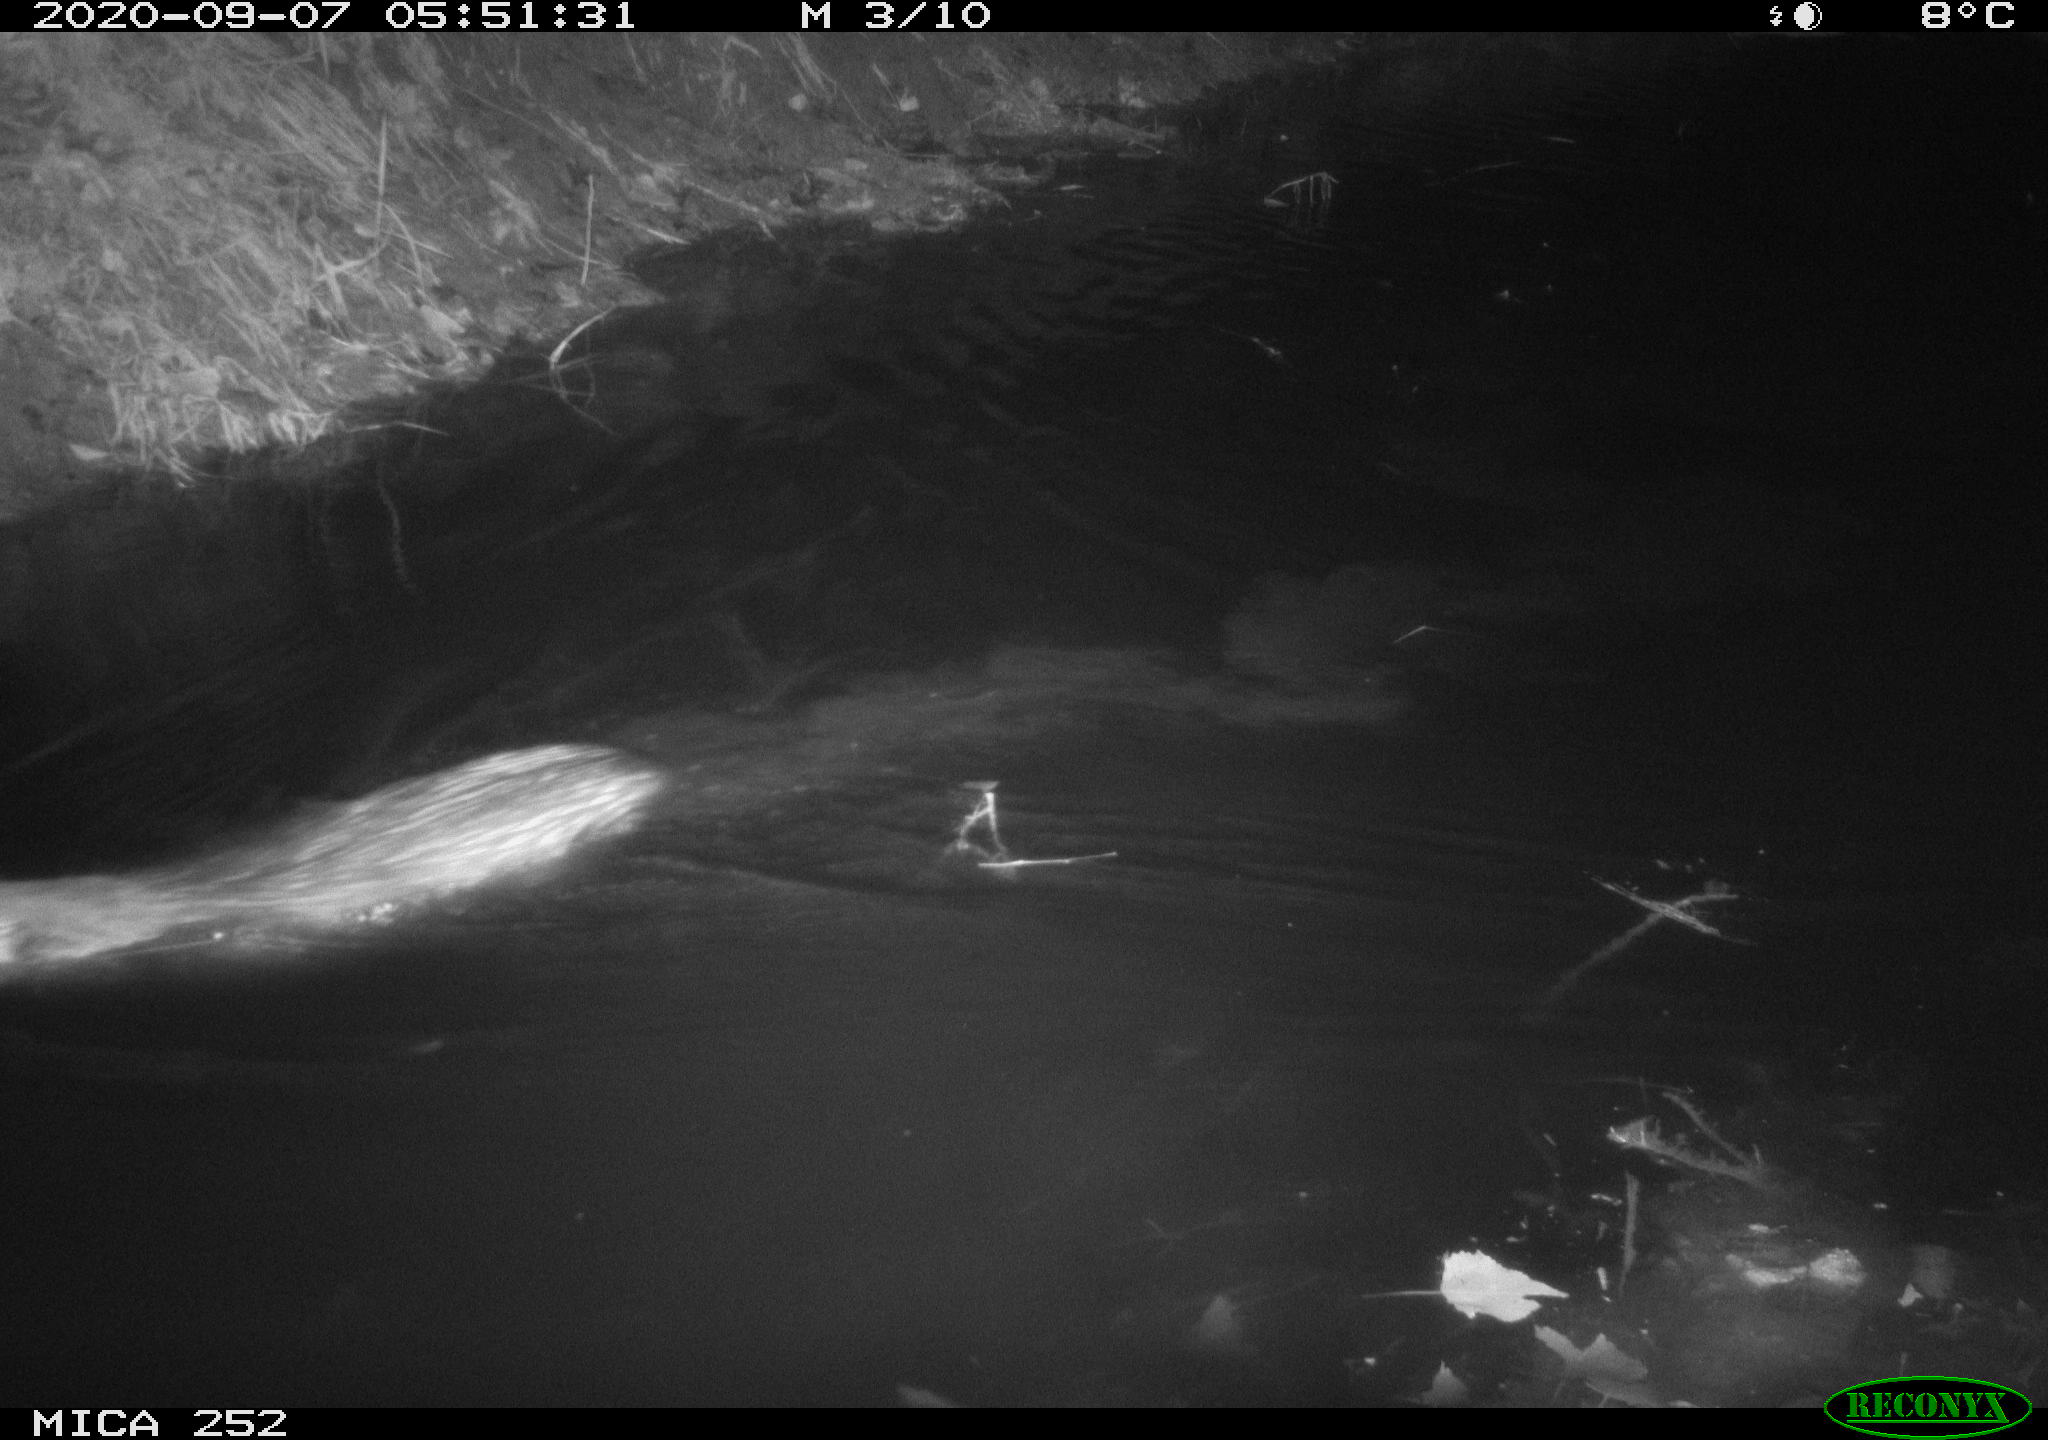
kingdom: Animalia
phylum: Chordata
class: Mammalia
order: Rodentia
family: Castoridae
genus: Castor
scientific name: Castor fiber
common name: Eurasian beaver
